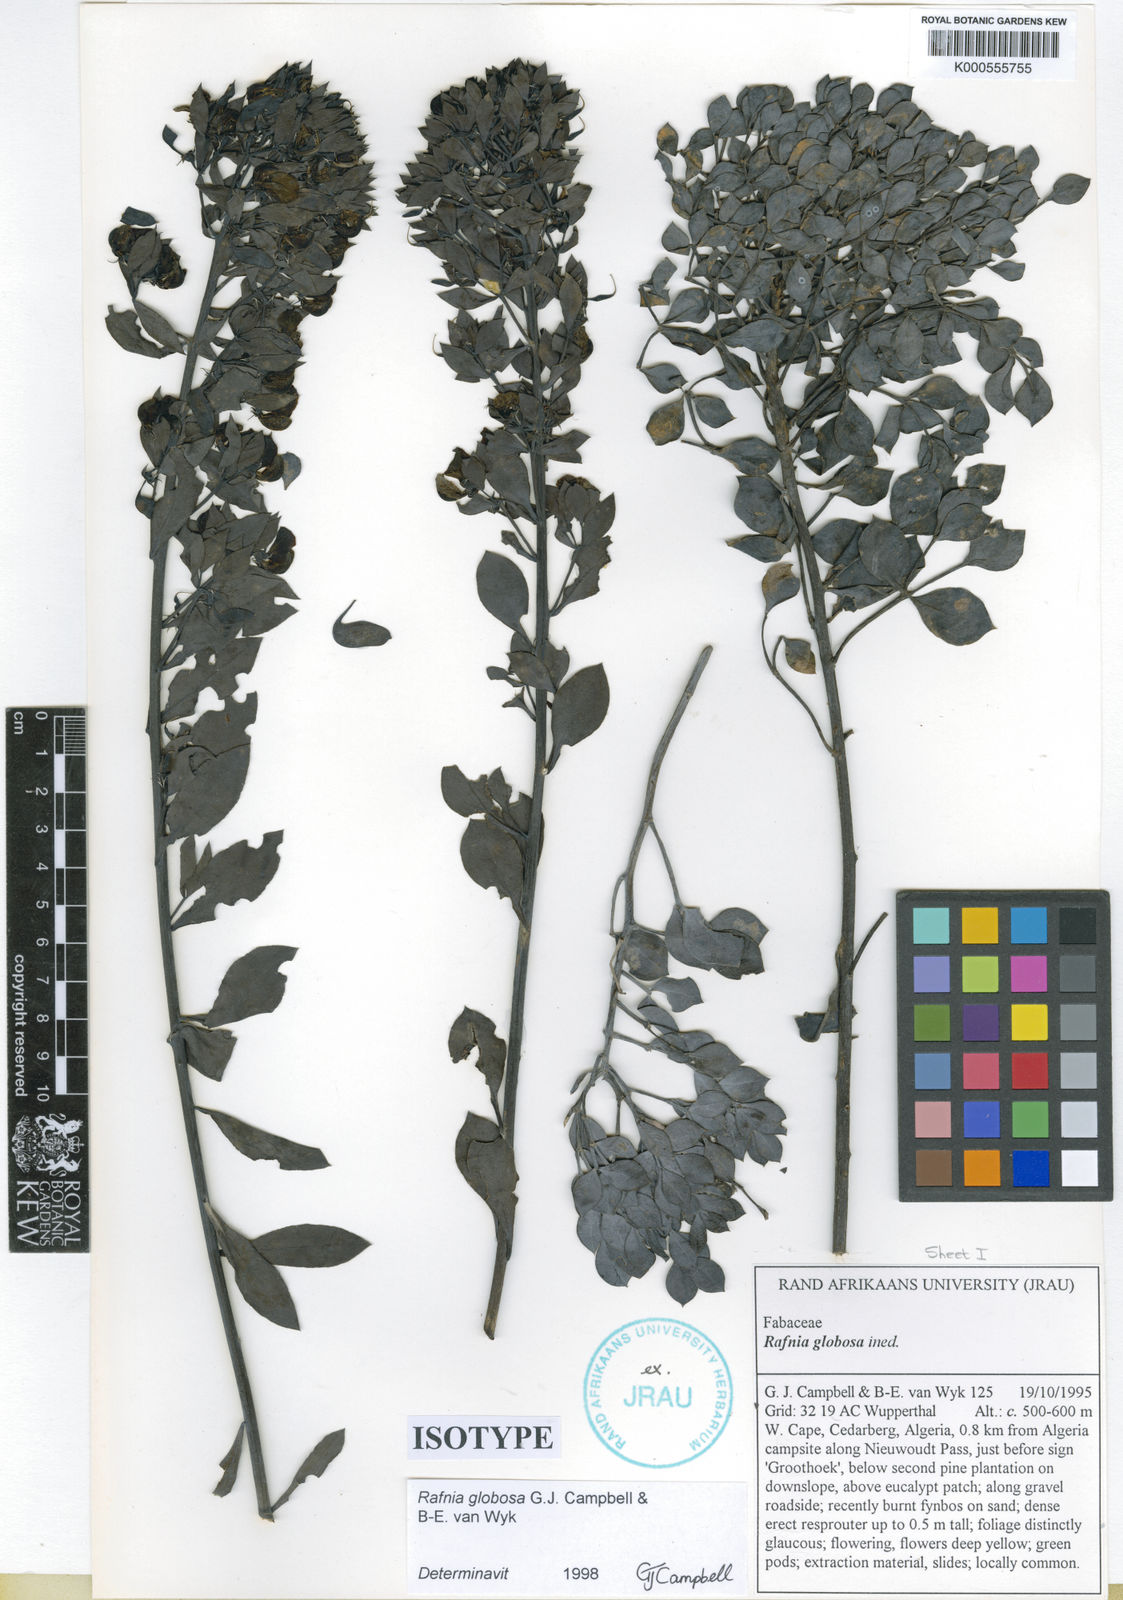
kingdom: Plantae
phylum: Tracheophyta
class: Magnoliopsida
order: Fabales
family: Fabaceae
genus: Rafnia
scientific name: Rafnia globosa
